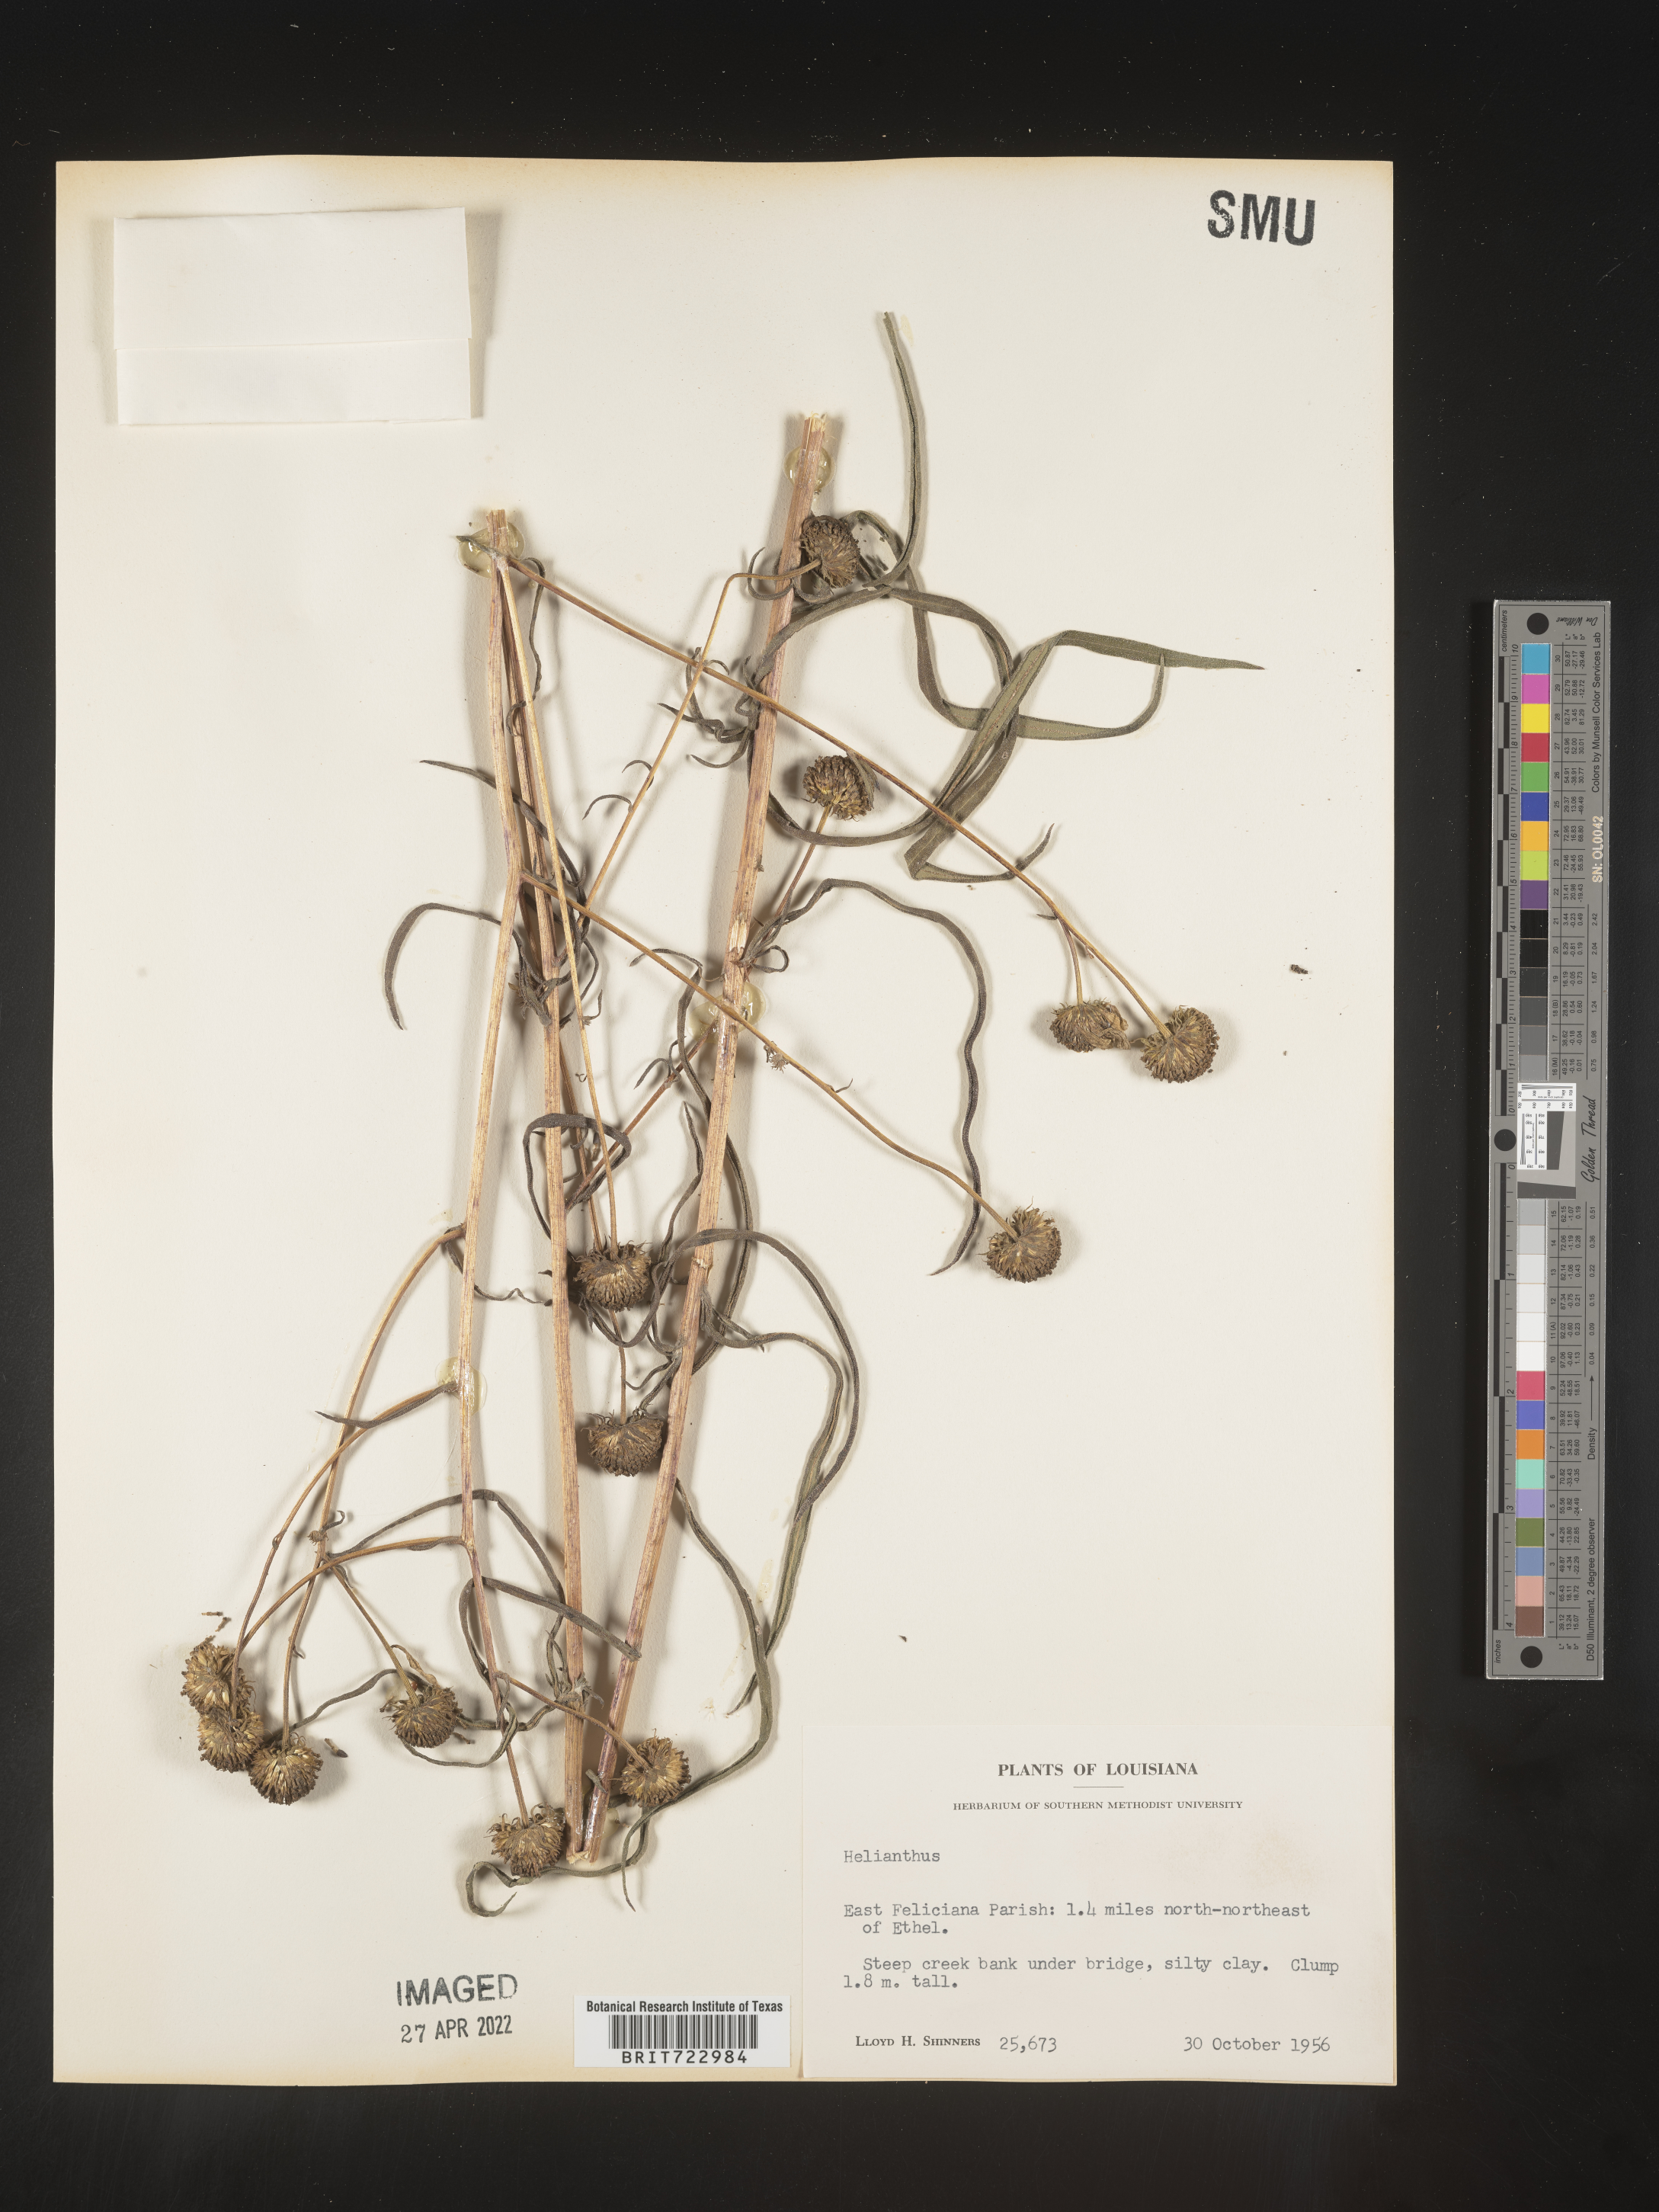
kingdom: Plantae
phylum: Tracheophyta
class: Magnoliopsida
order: Asterales
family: Asteraceae
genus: Helianthus
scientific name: Helianthus
